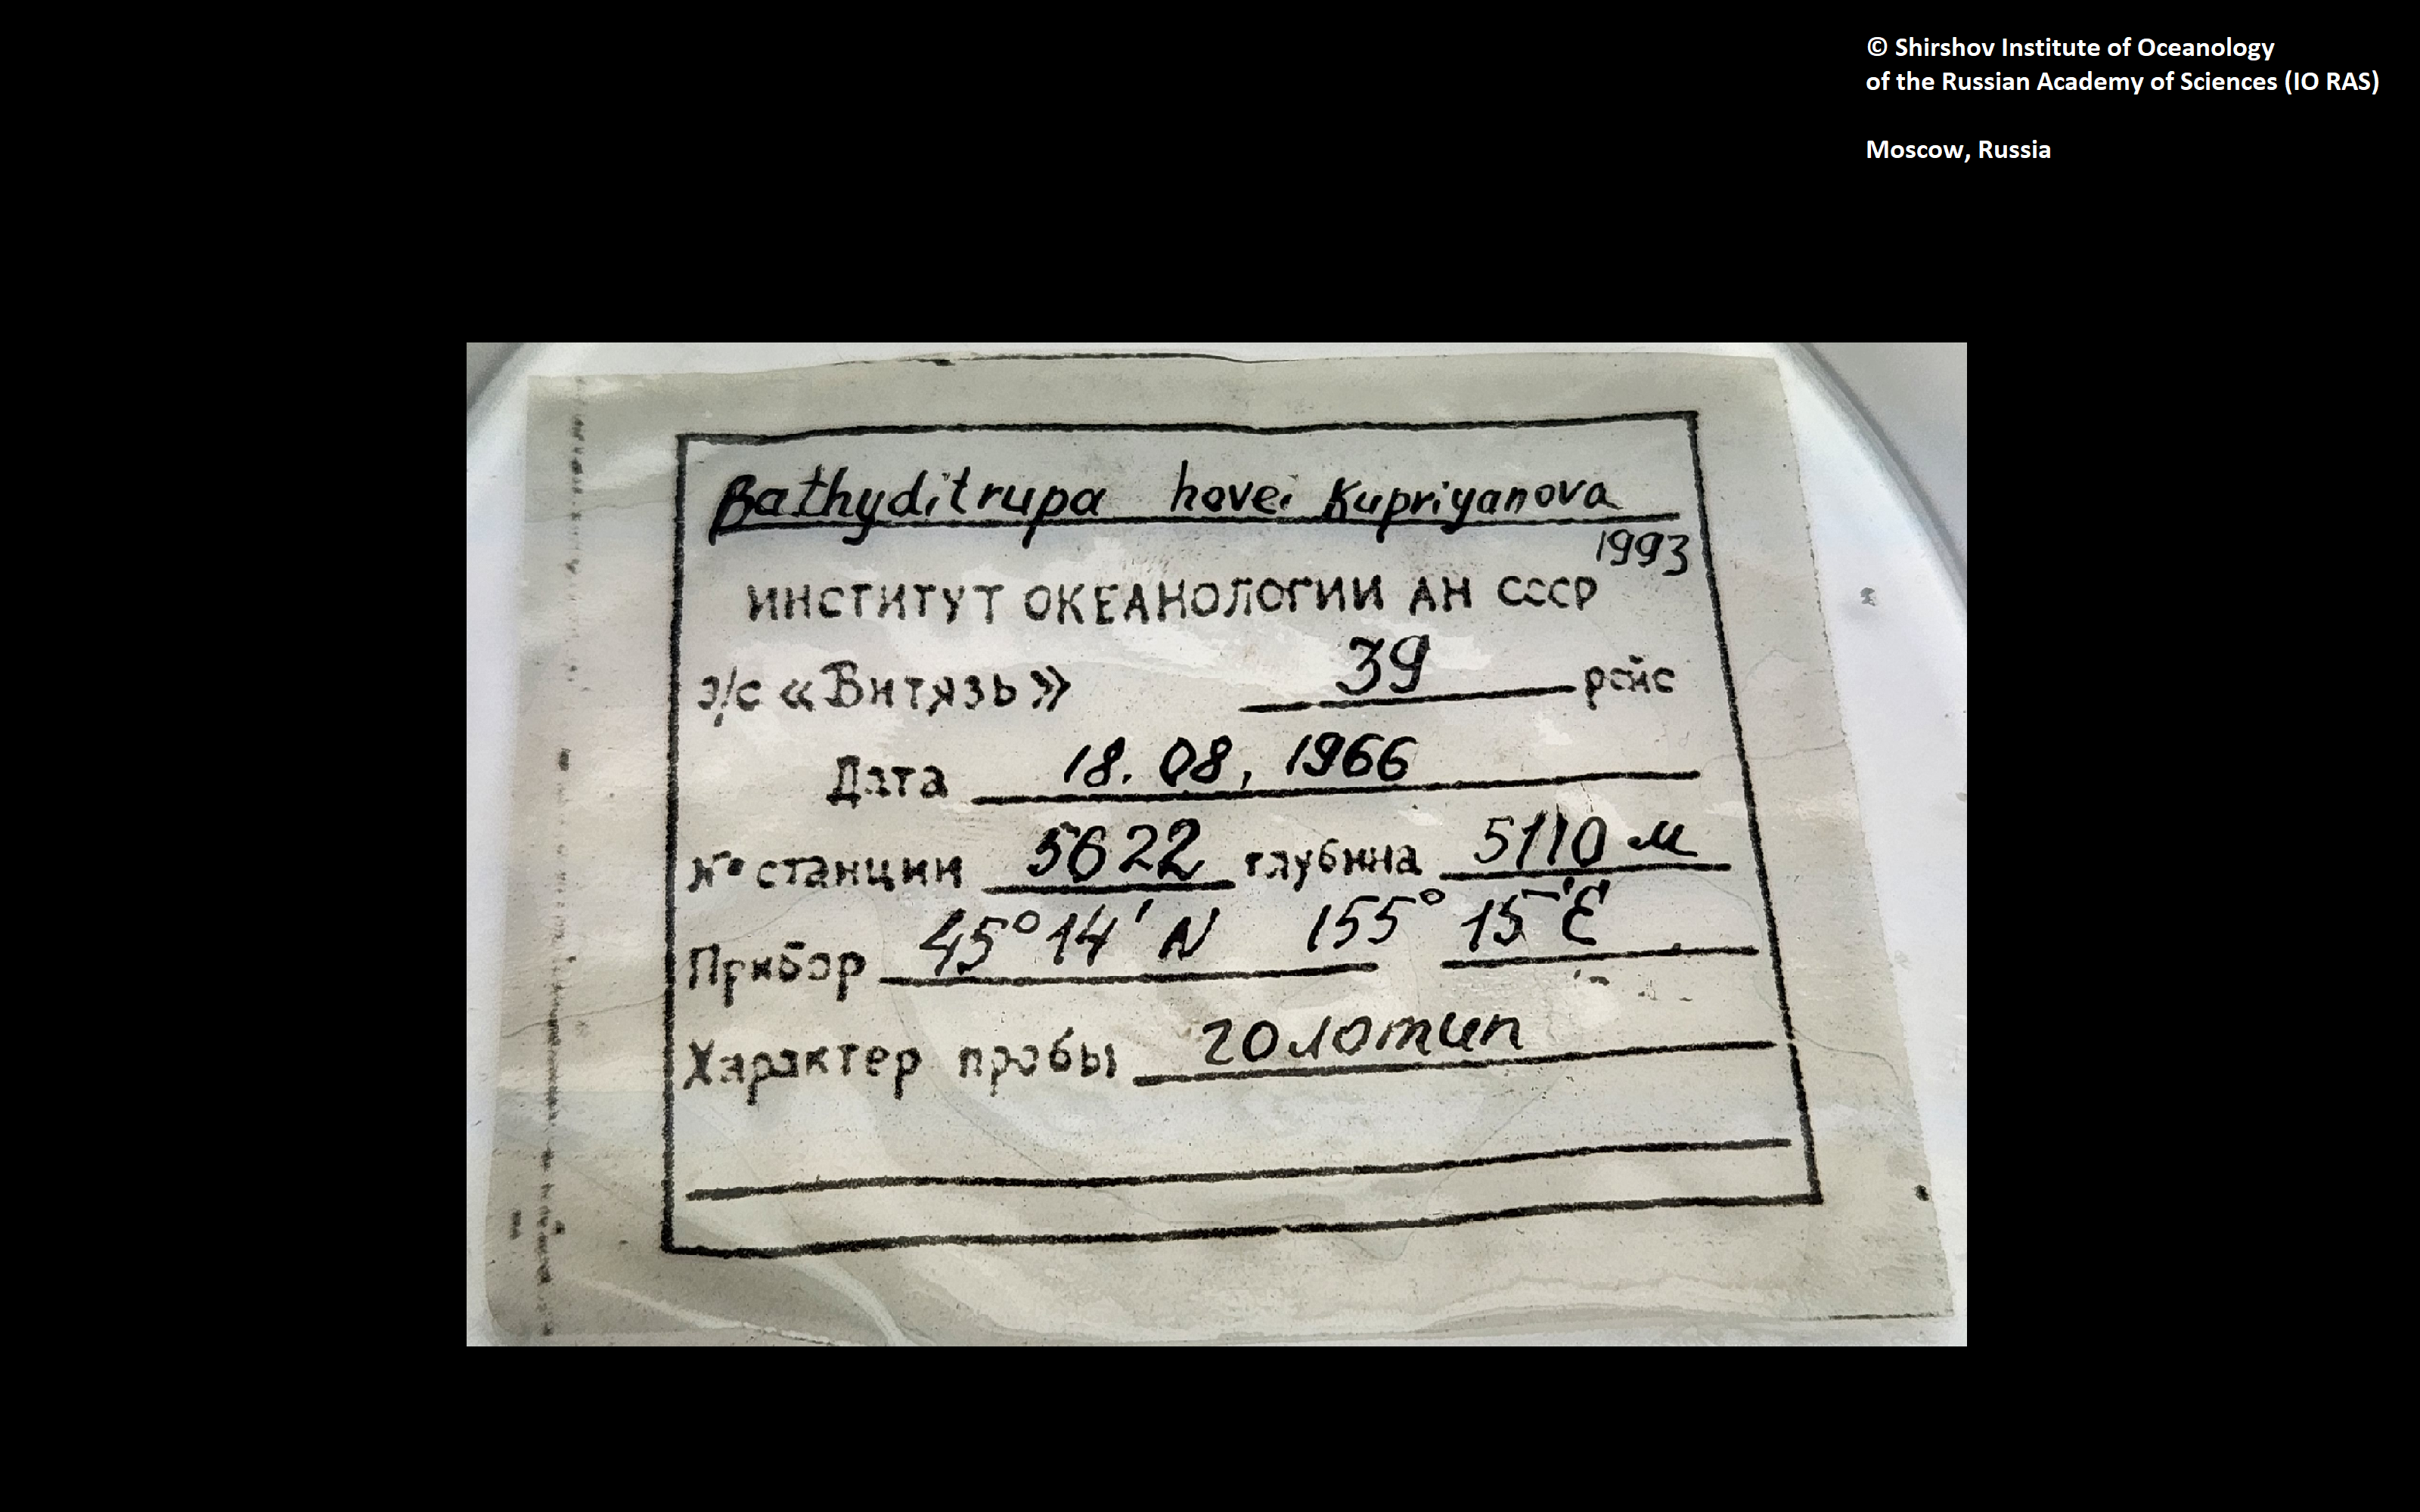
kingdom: Animalia
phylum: Annelida
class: Polychaeta
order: Sabellida
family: Serpulidae
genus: Bathyditrupa
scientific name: Bathyditrupa hovei
